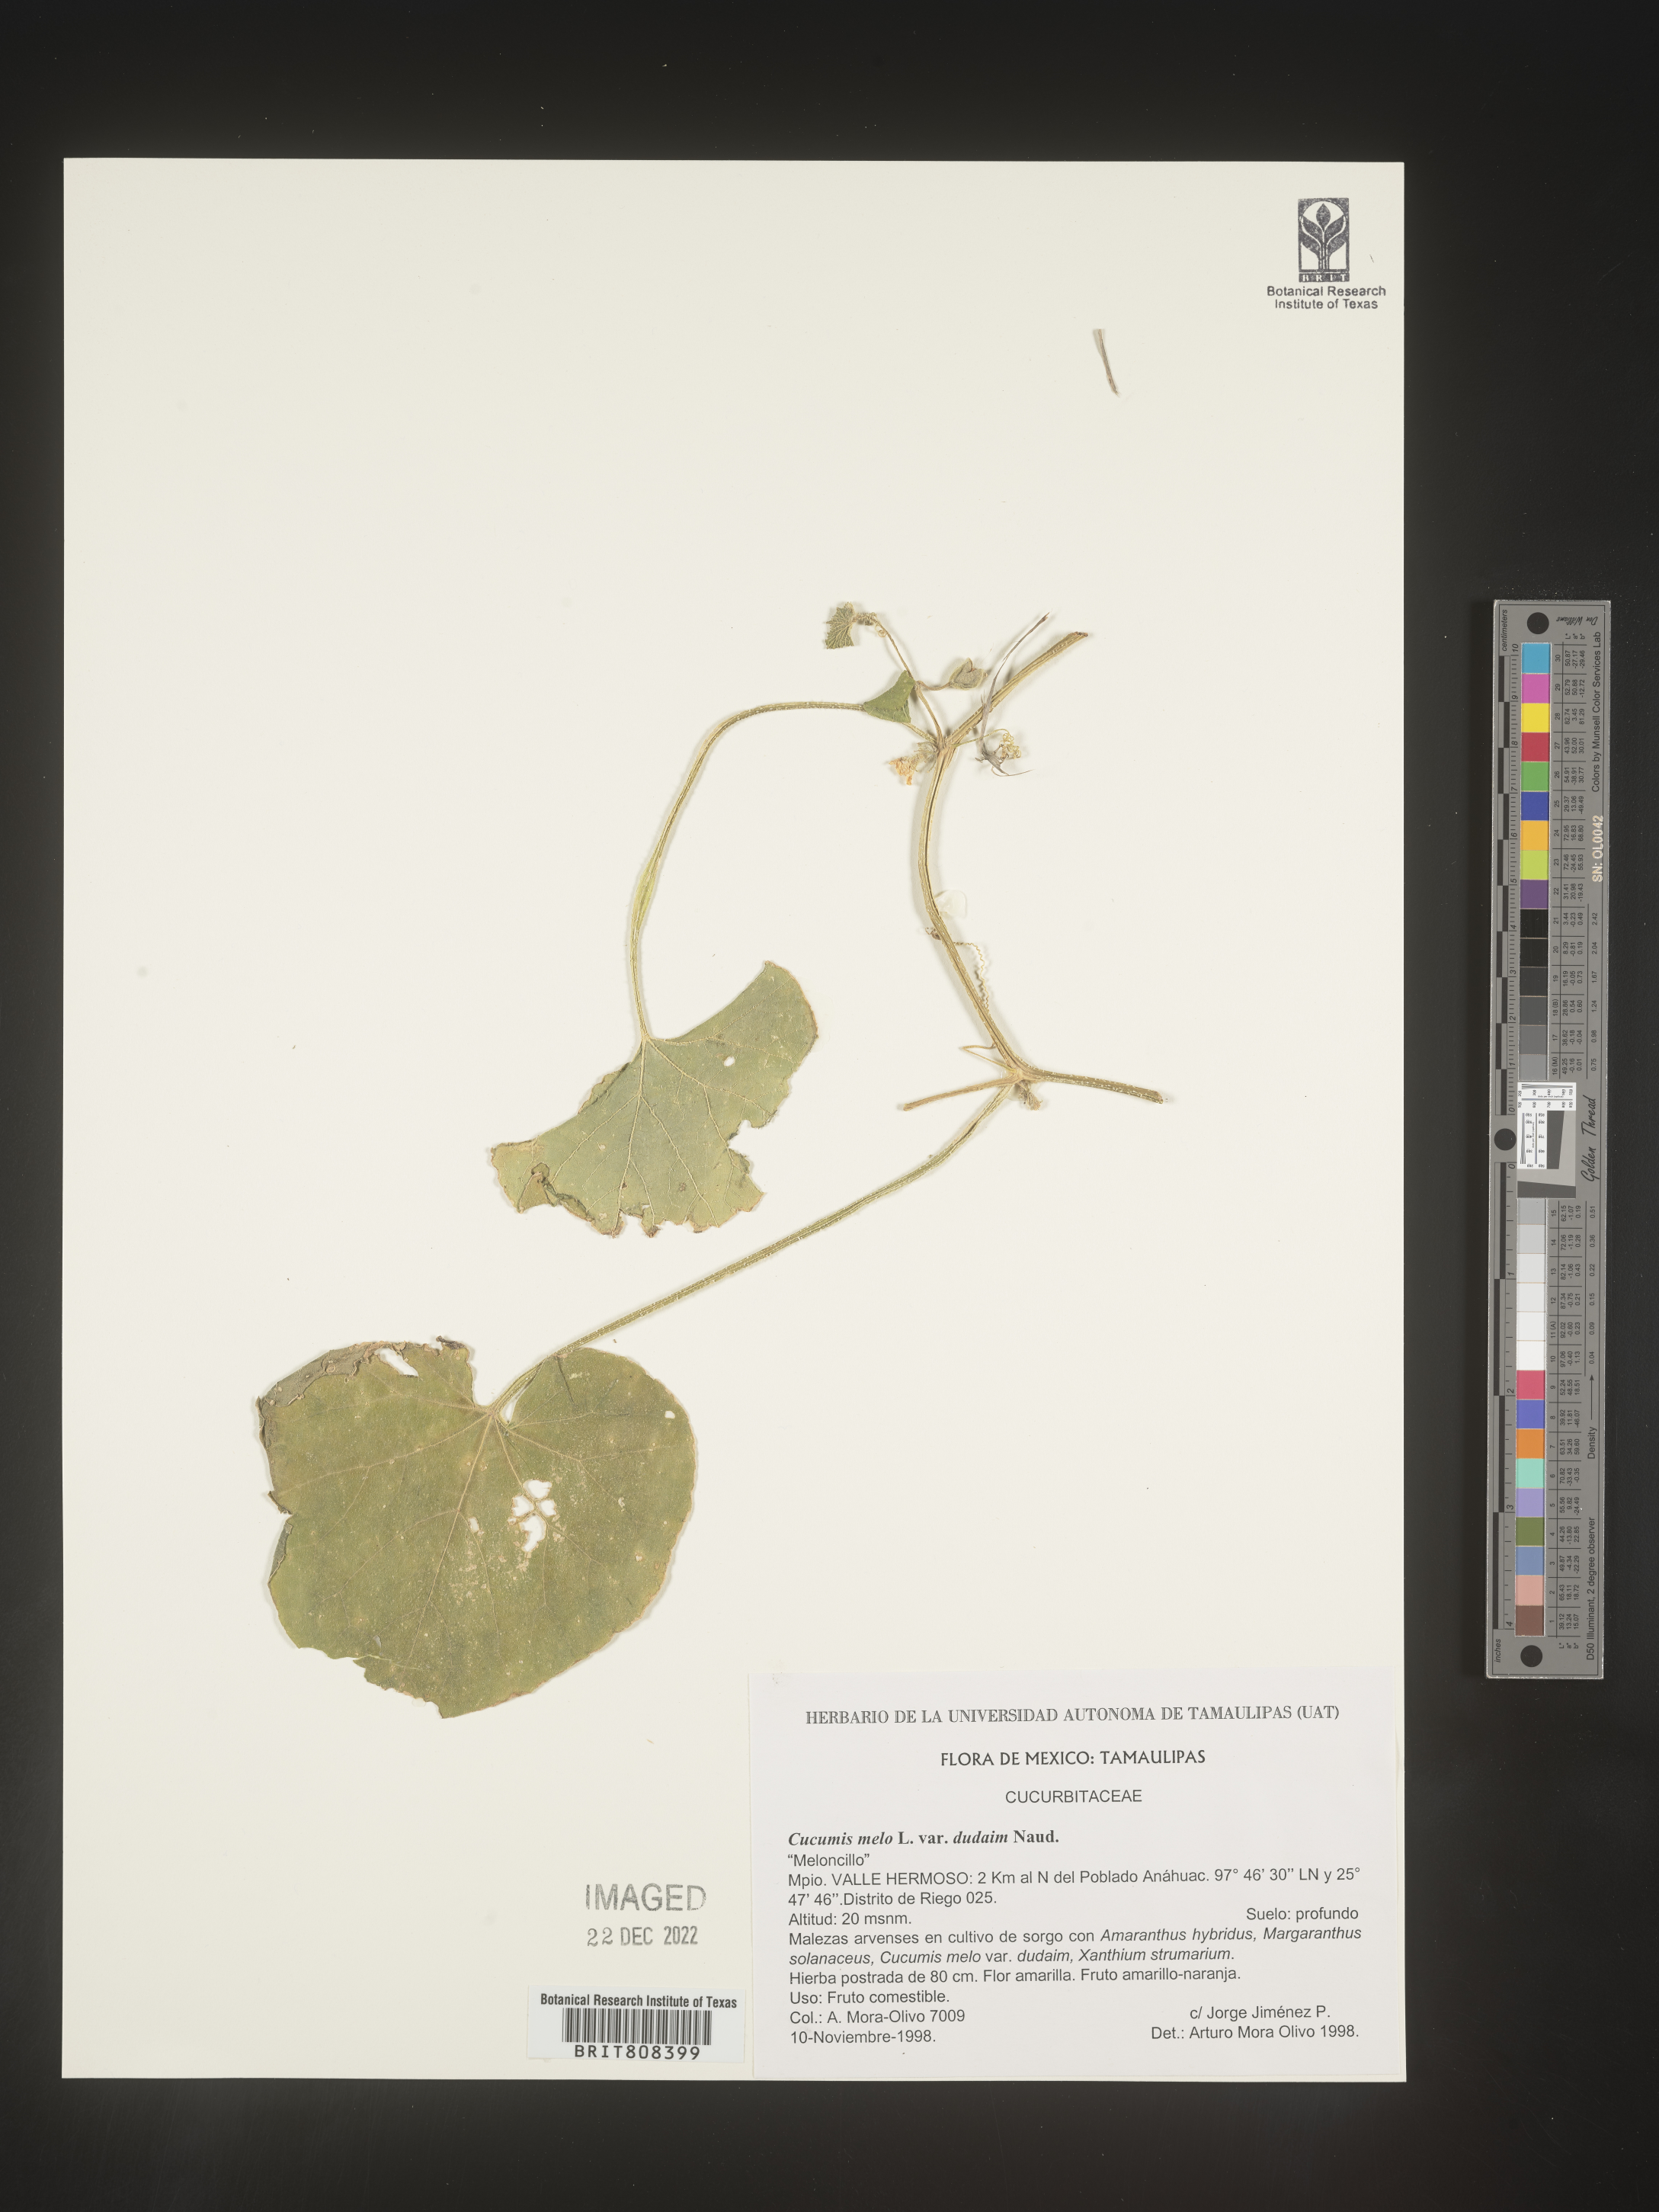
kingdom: Plantae
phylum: Tracheophyta
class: Magnoliopsida
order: Cucurbitales
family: Cucurbitaceae
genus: Cucumis
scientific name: Cucumis
